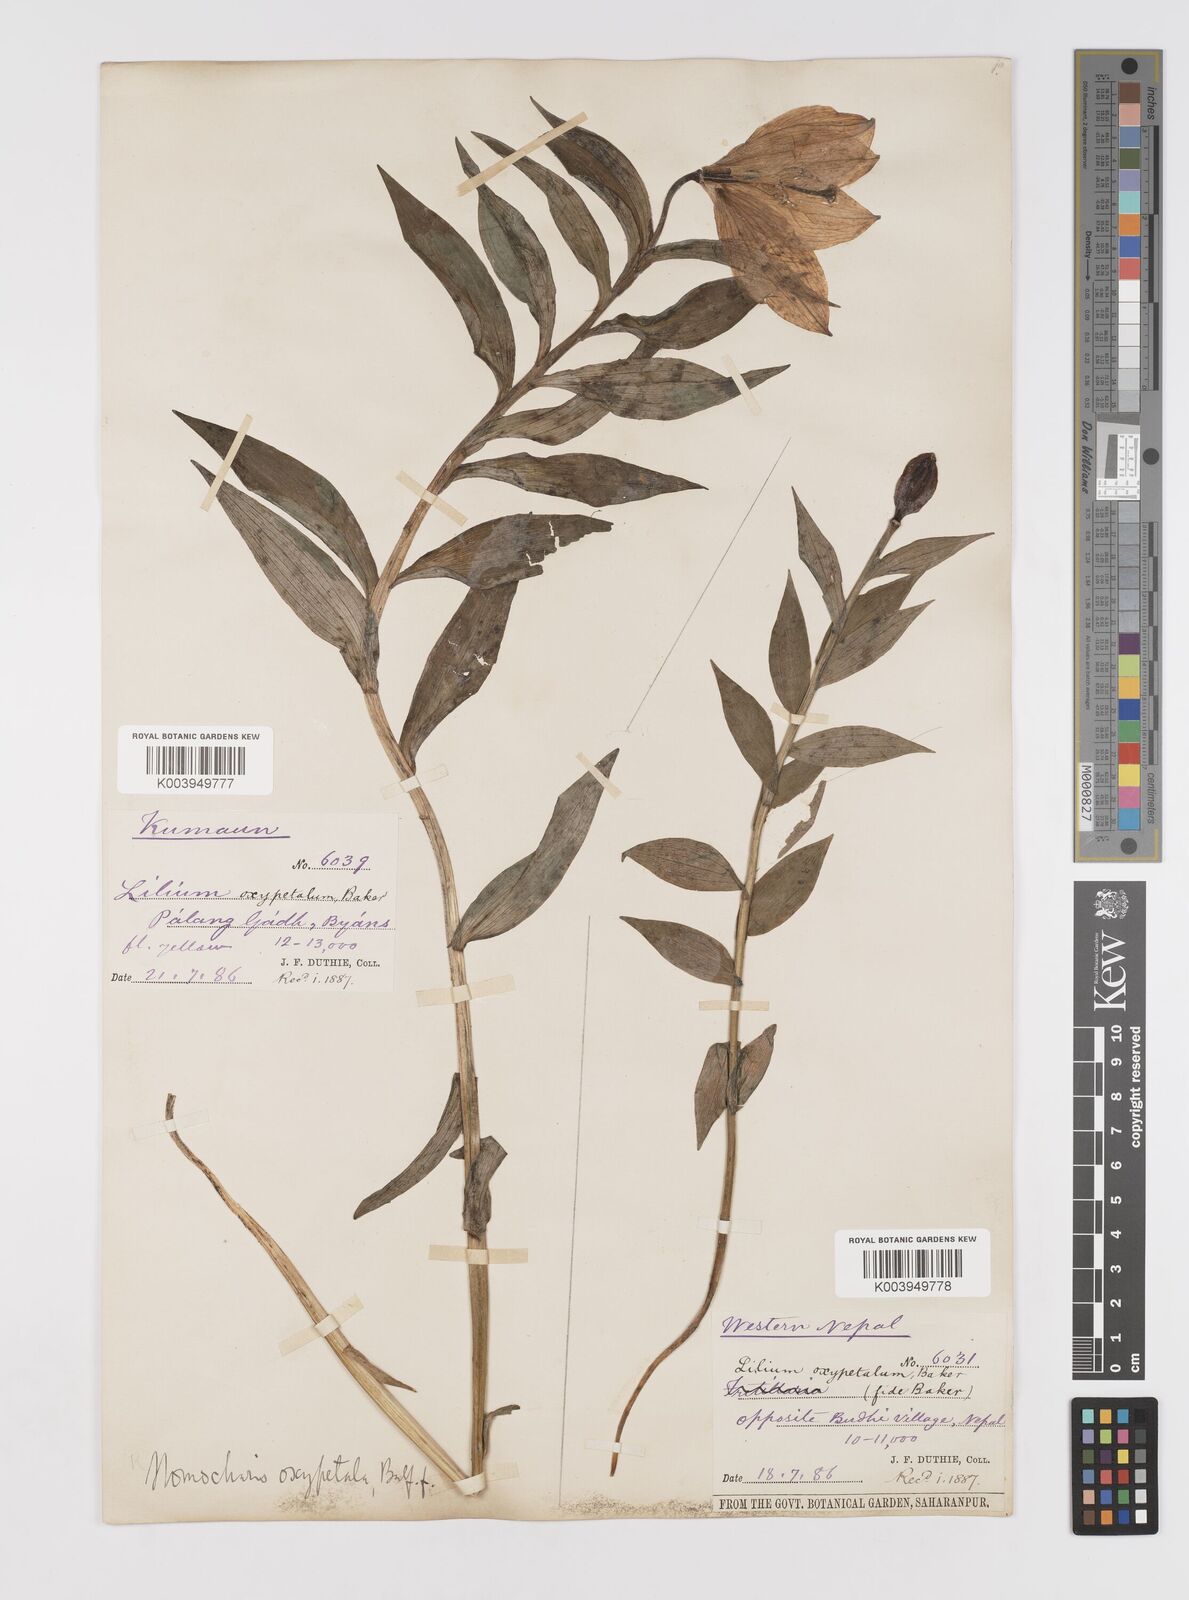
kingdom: Plantae
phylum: Tracheophyta
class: Liliopsida
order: Liliales
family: Liliaceae
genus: Lilium
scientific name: Lilium oxypetalum
